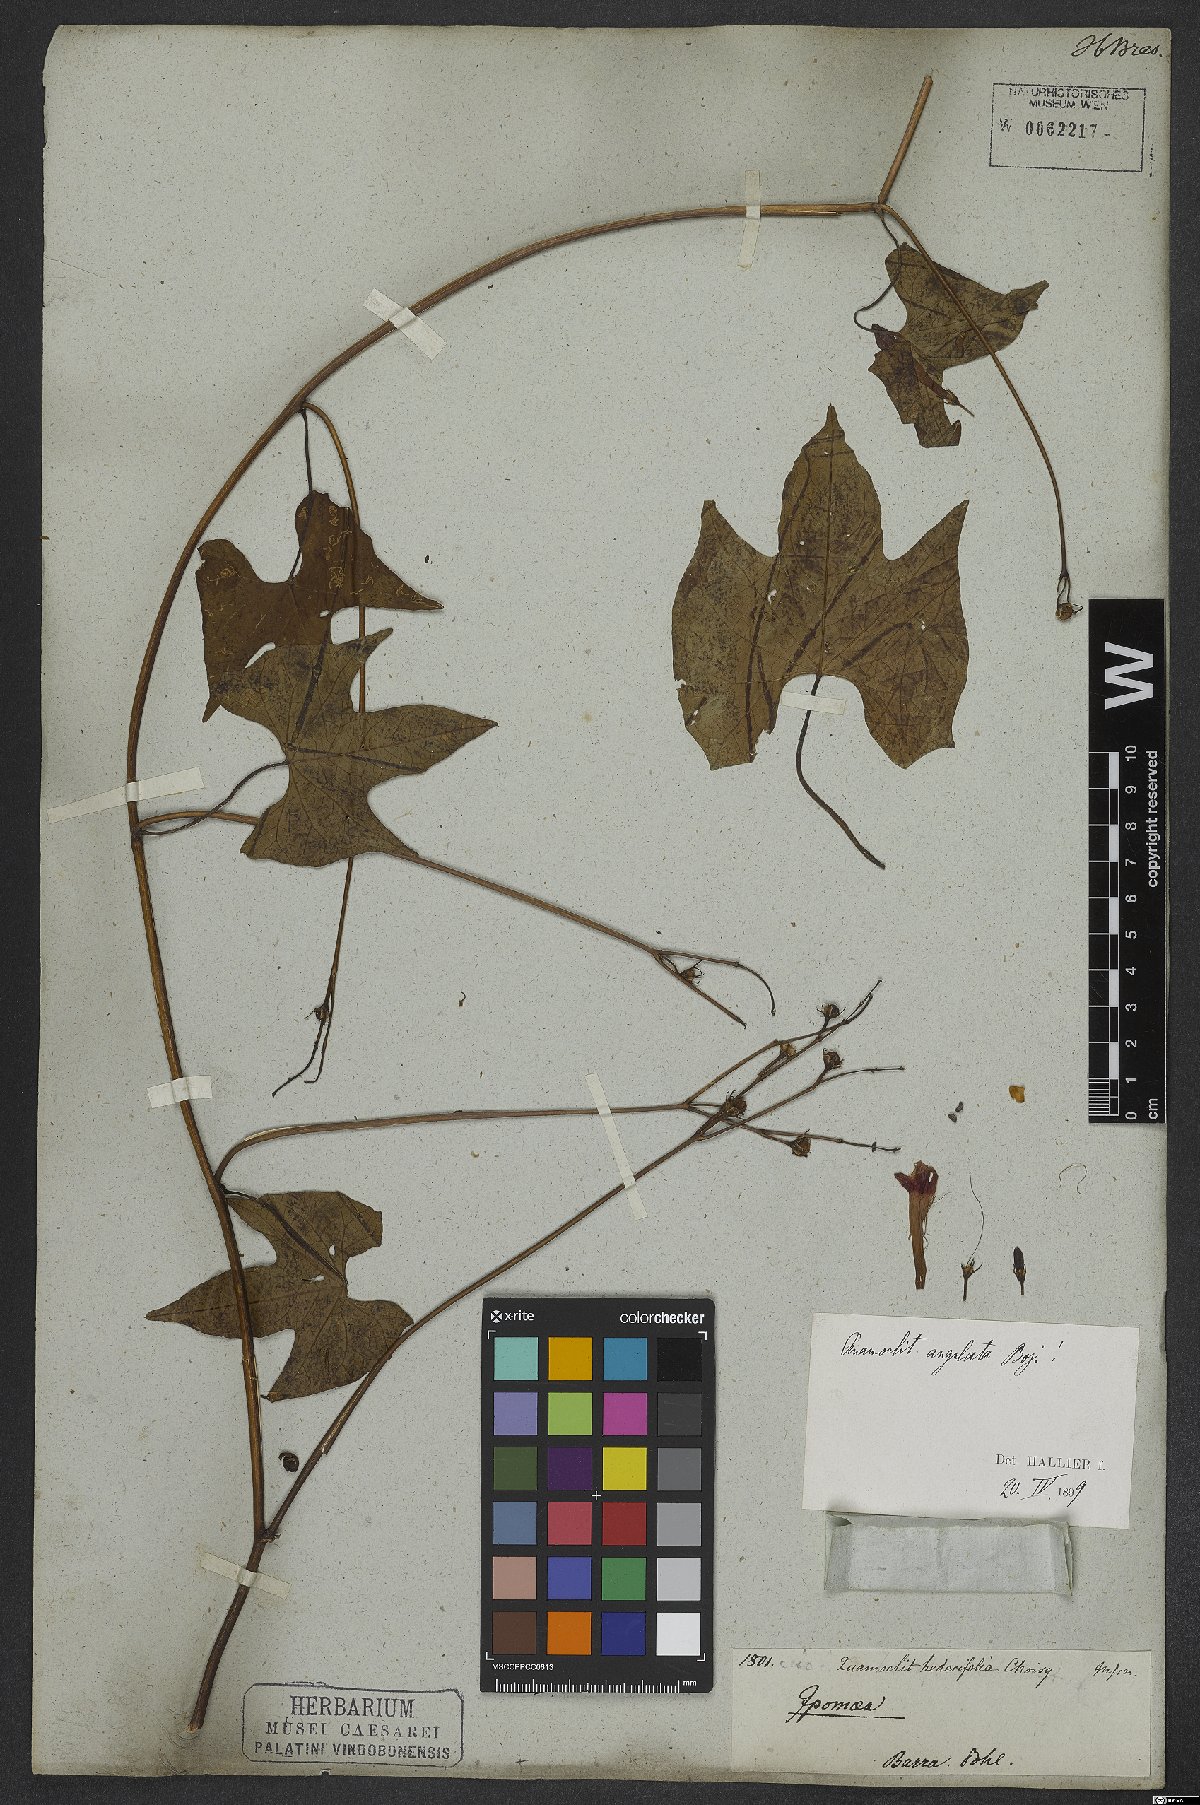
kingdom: Plantae
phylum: Tracheophyta
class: Magnoliopsida
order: Solanales
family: Convolvulaceae
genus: Ipomoea
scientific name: Ipomoea hederifolia
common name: Ivy-leaf morning-glory
